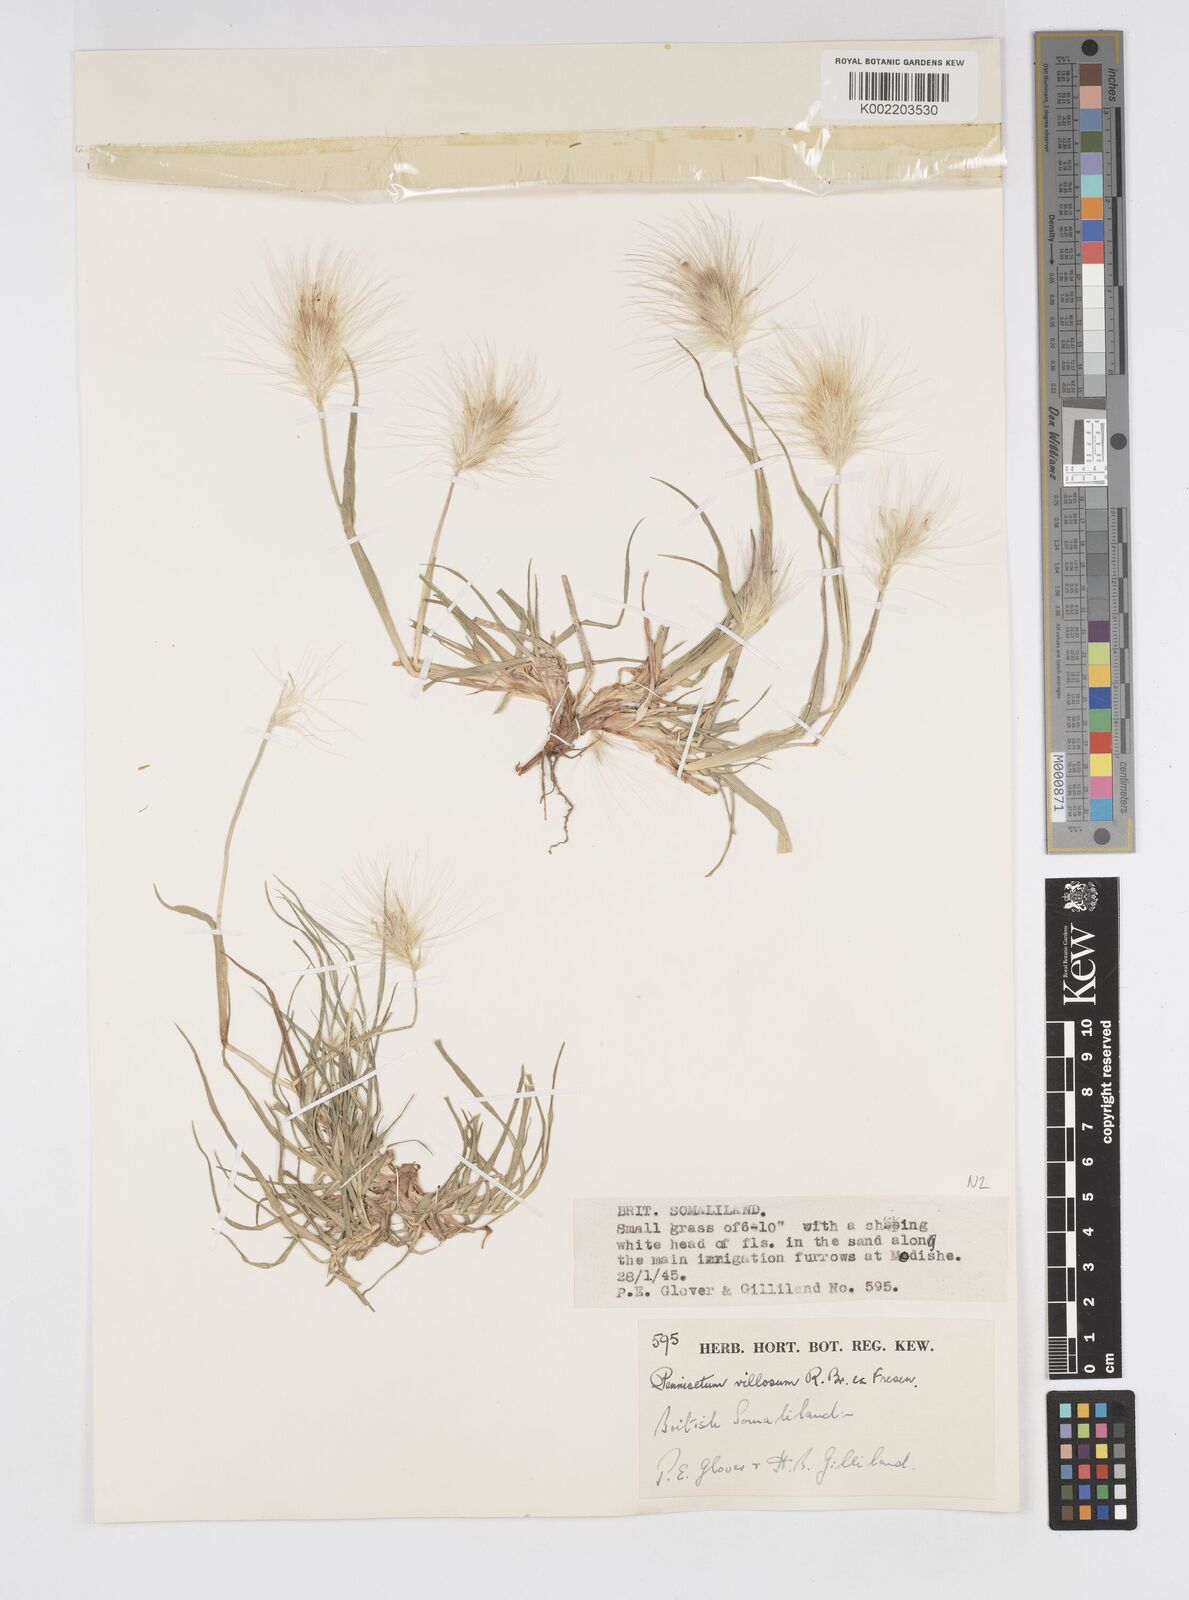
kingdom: Plantae
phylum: Tracheophyta
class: Liliopsida
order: Poales
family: Poaceae
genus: Cenchrus
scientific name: Cenchrus longisetus
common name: Feathertop
